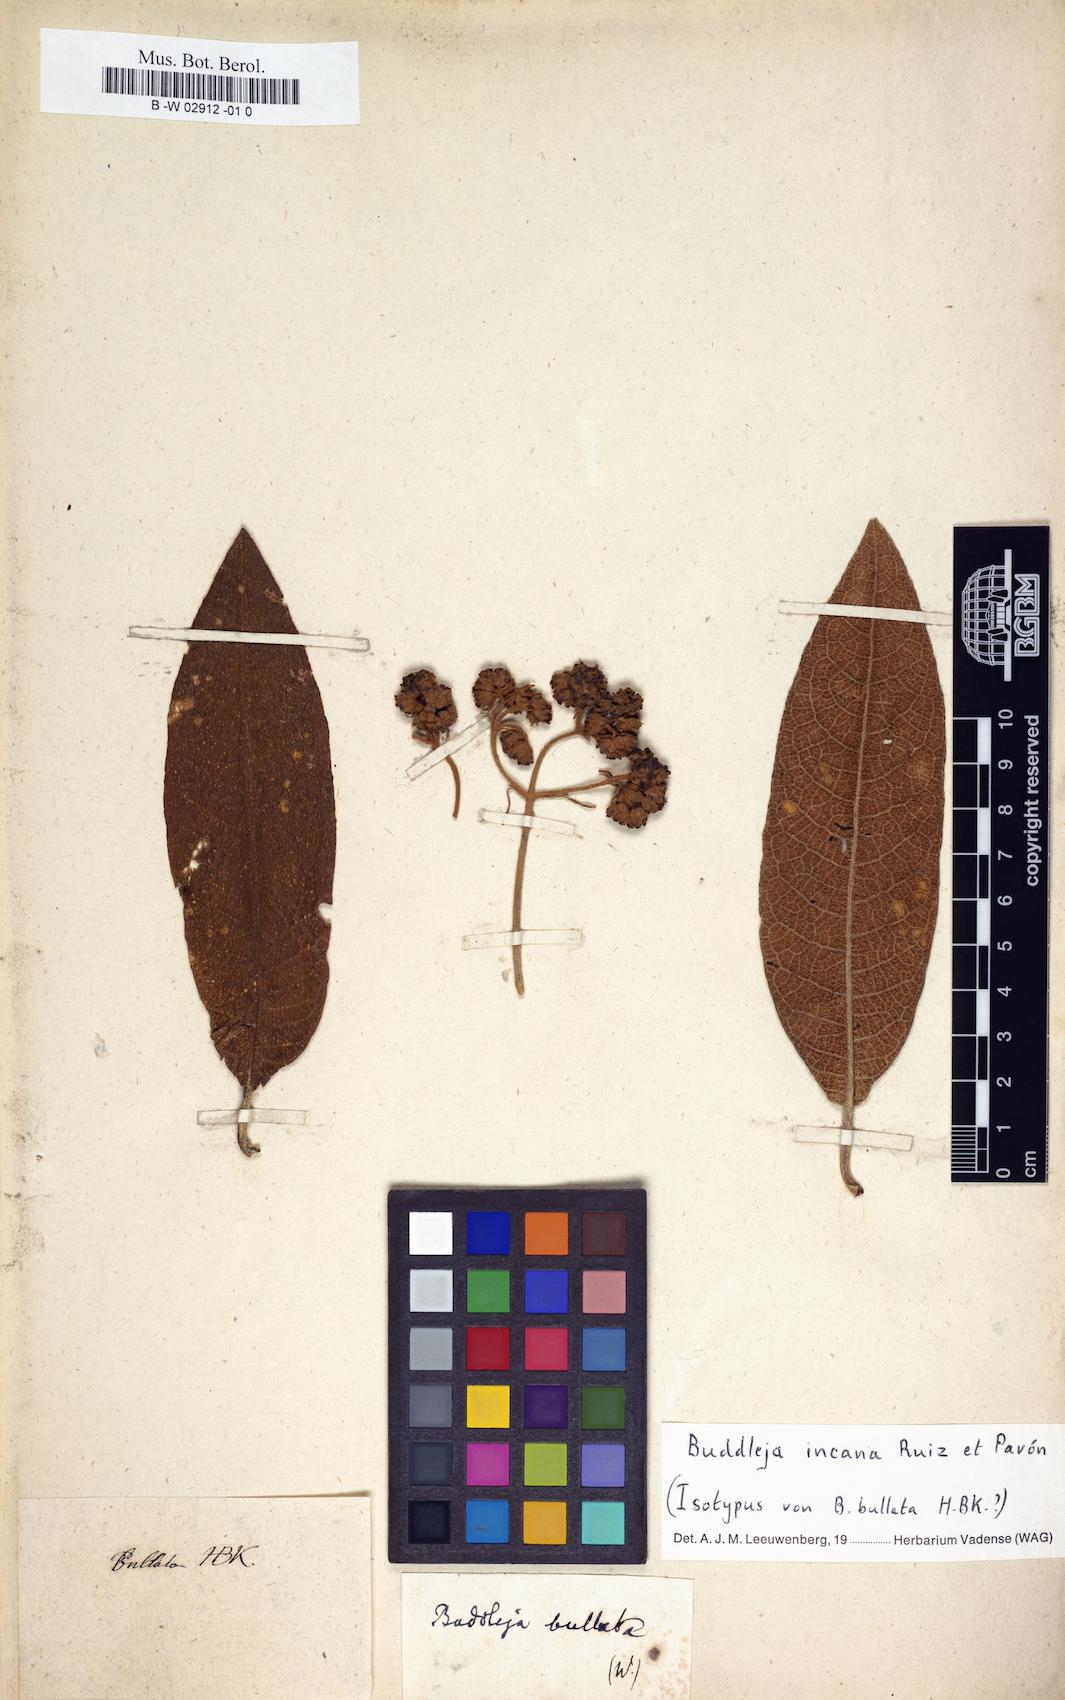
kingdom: Plantae
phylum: Tracheophyta
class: Magnoliopsida
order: Lamiales
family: Scrophulariaceae
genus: Buddleja
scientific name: Buddleja bullata
